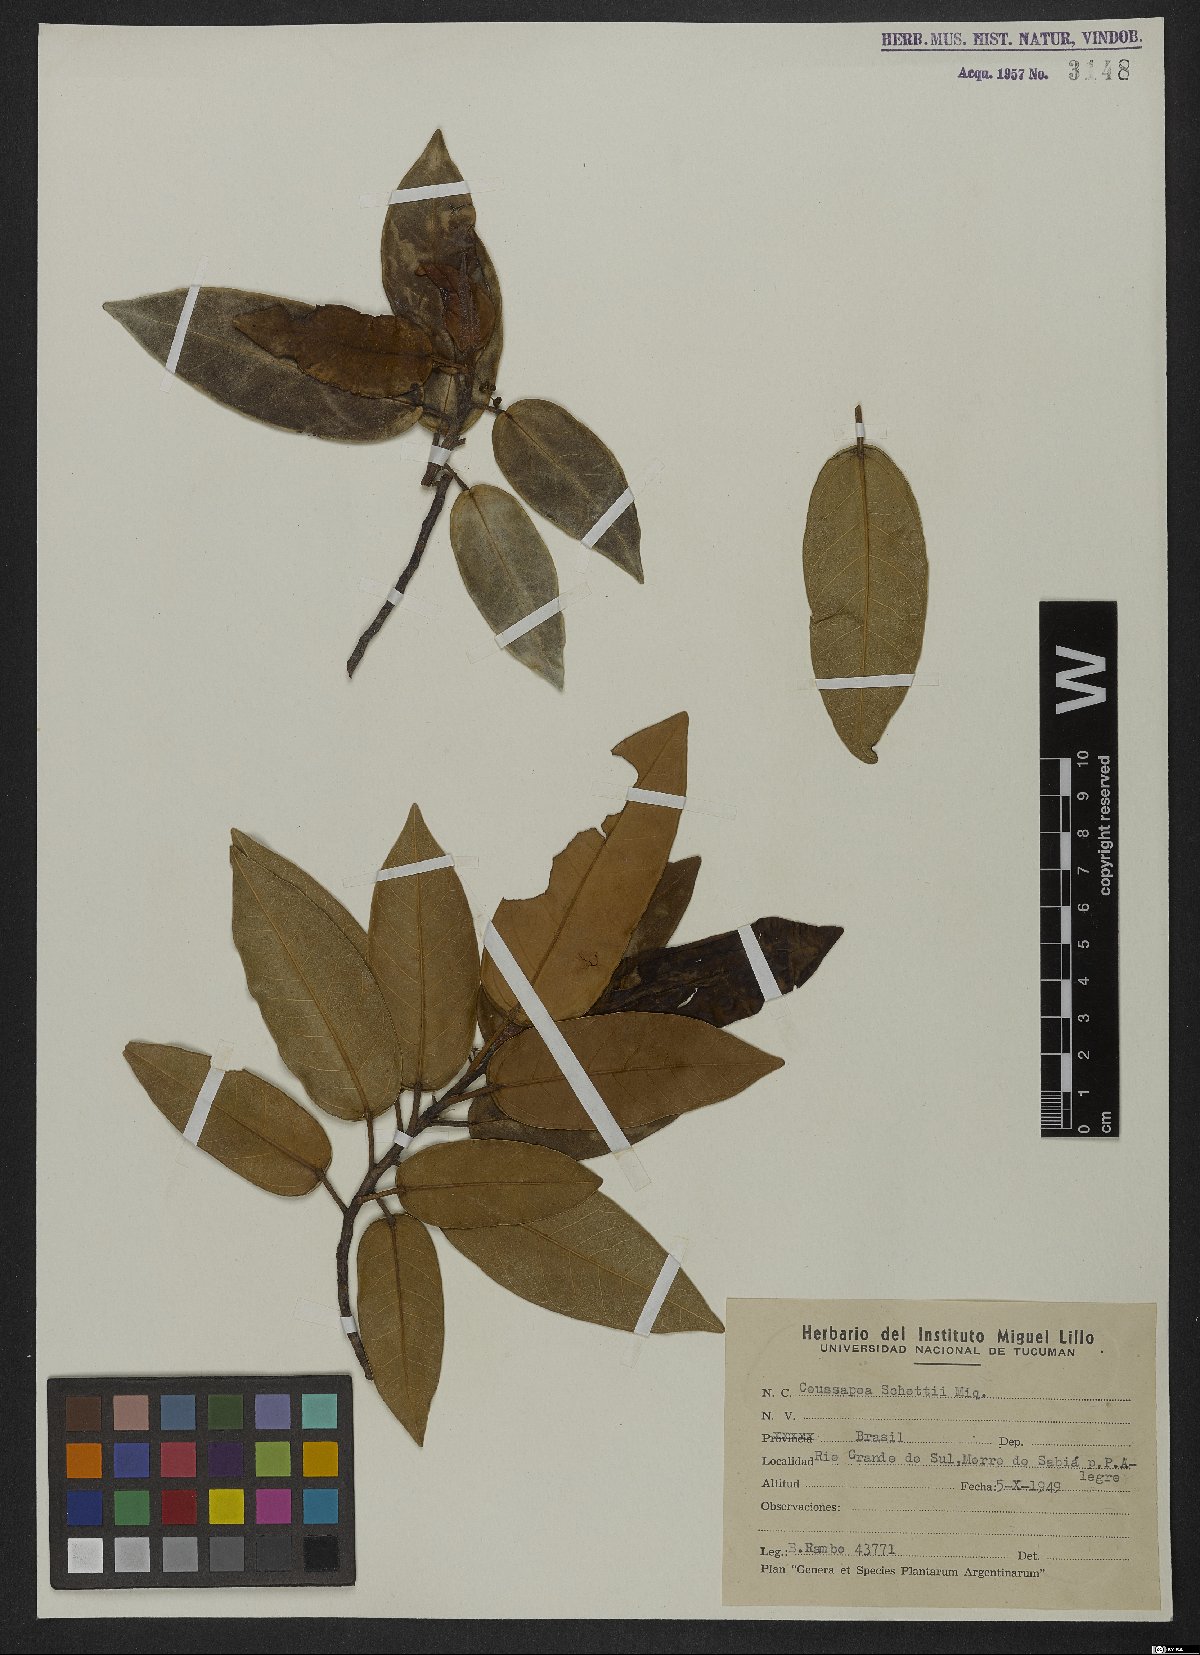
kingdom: Plantae
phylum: Tracheophyta
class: Magnoliopsida
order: Rosales
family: Urticaceae
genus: Coussapoa
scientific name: Coussapoa microcarpa
